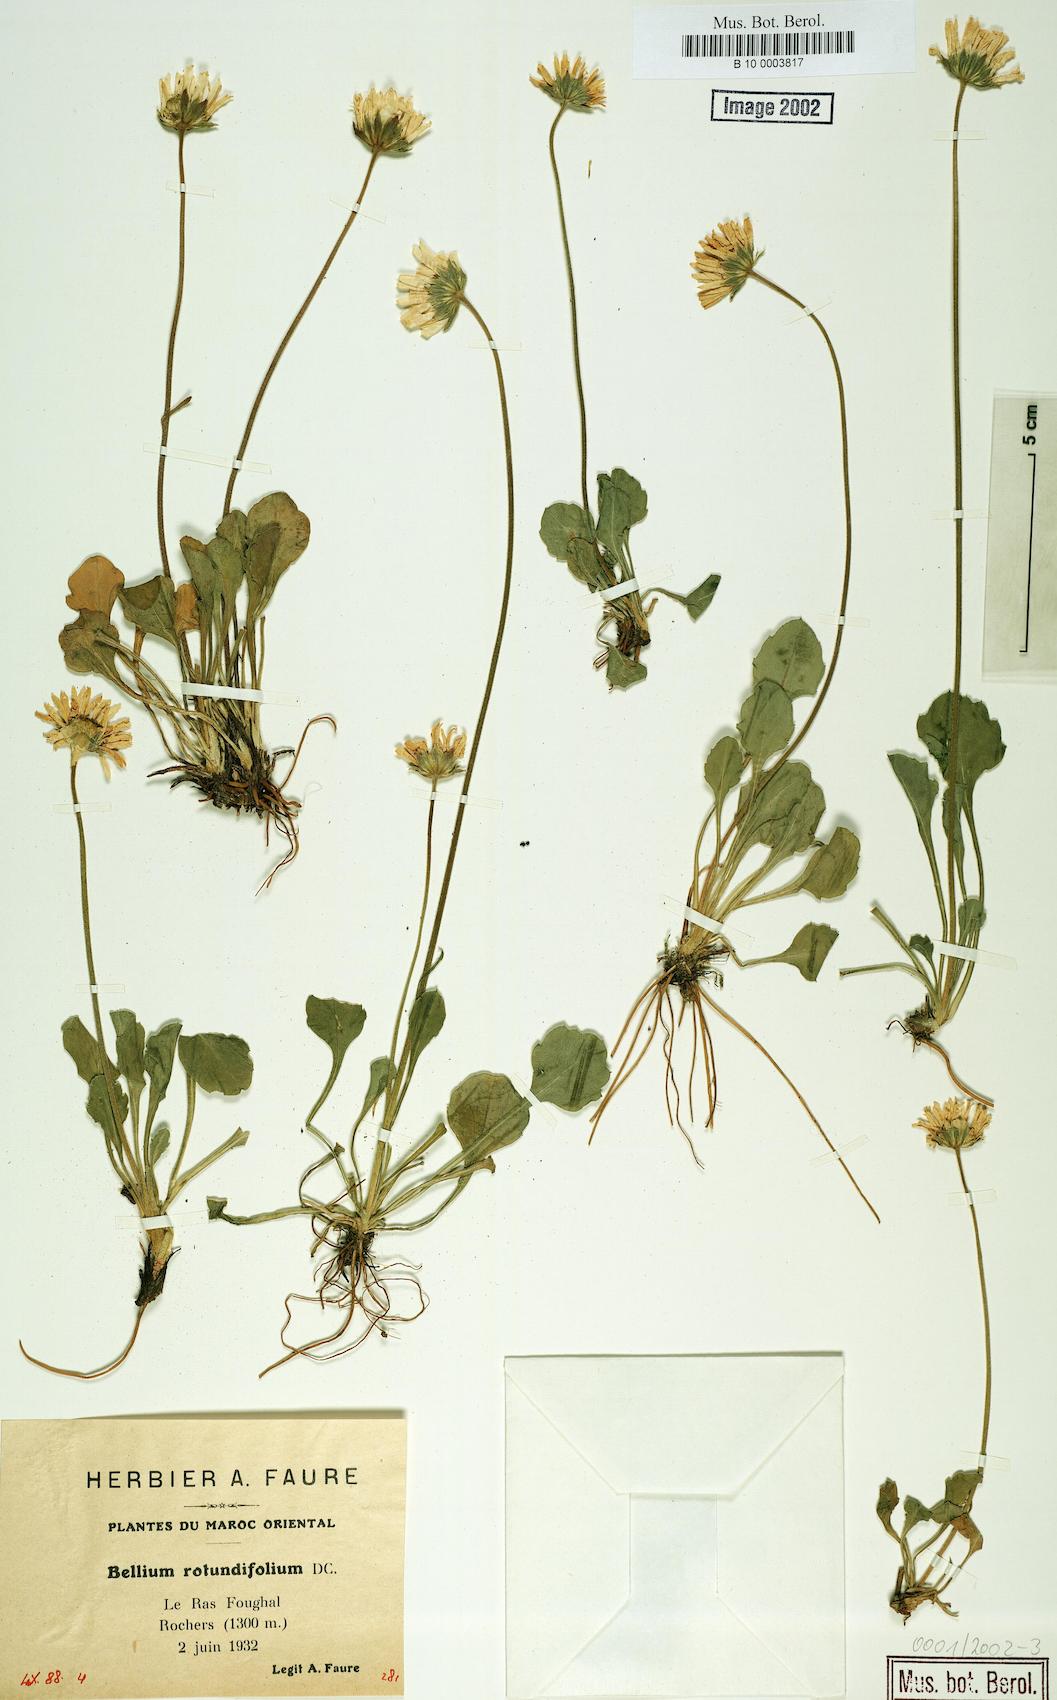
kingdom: Plantae
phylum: Tracheophyta
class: Magnoliopsida
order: Asterales
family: Asteraceae
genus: Bellis
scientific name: Bellis rotundifolia
